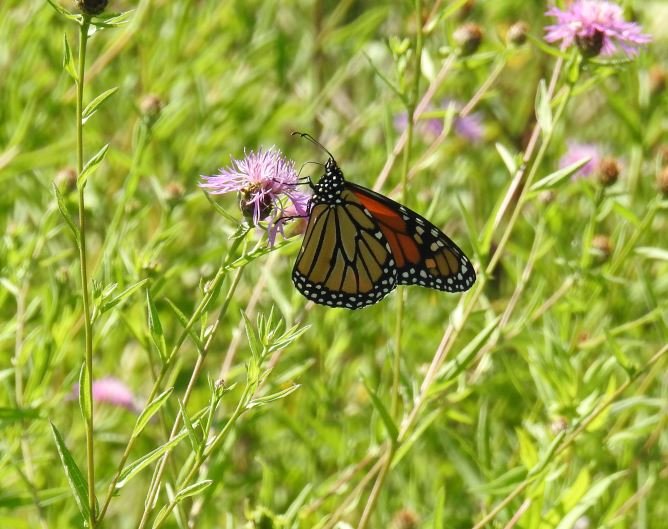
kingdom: Animalia
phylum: Arthropoda
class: Insecta
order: Lepidoptera
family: Nymphalidae
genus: Danaus
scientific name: Danaus plexippus
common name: Monarch
